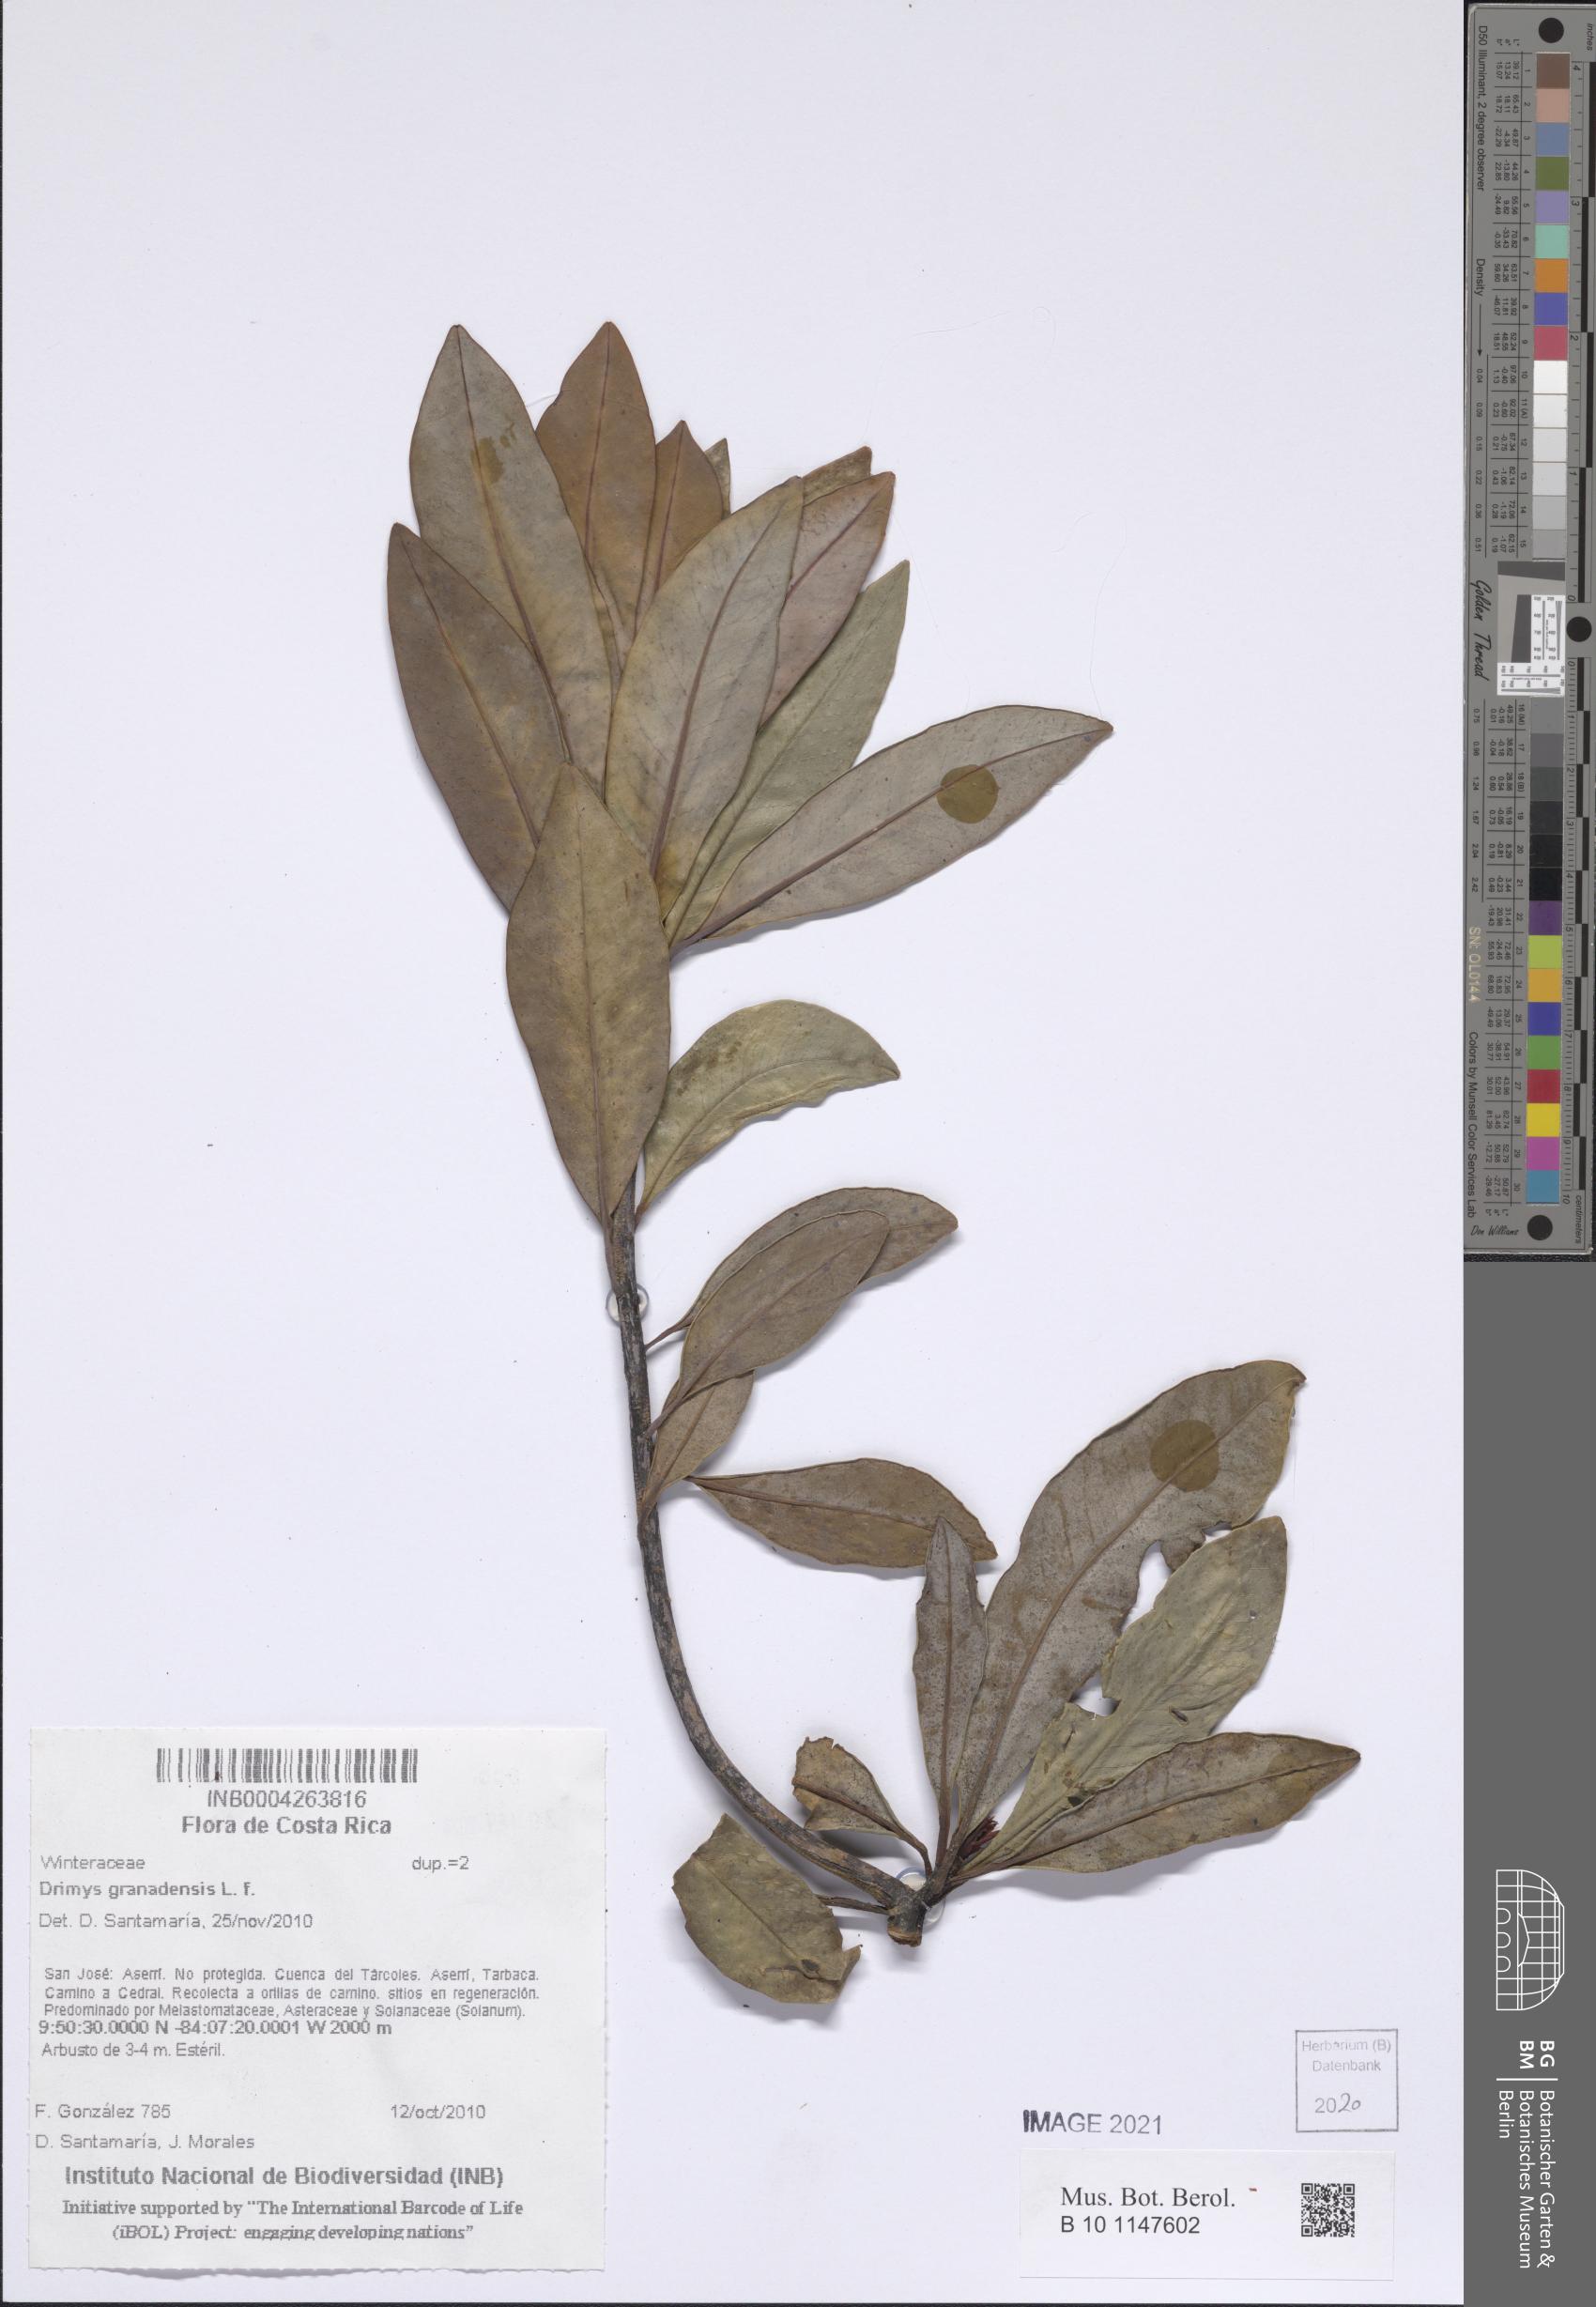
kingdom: Plantae
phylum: Tracheophyta
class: Magnoliopsida
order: Canellales
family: Winteraceae
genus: Drimys
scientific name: Drimys granadensis
